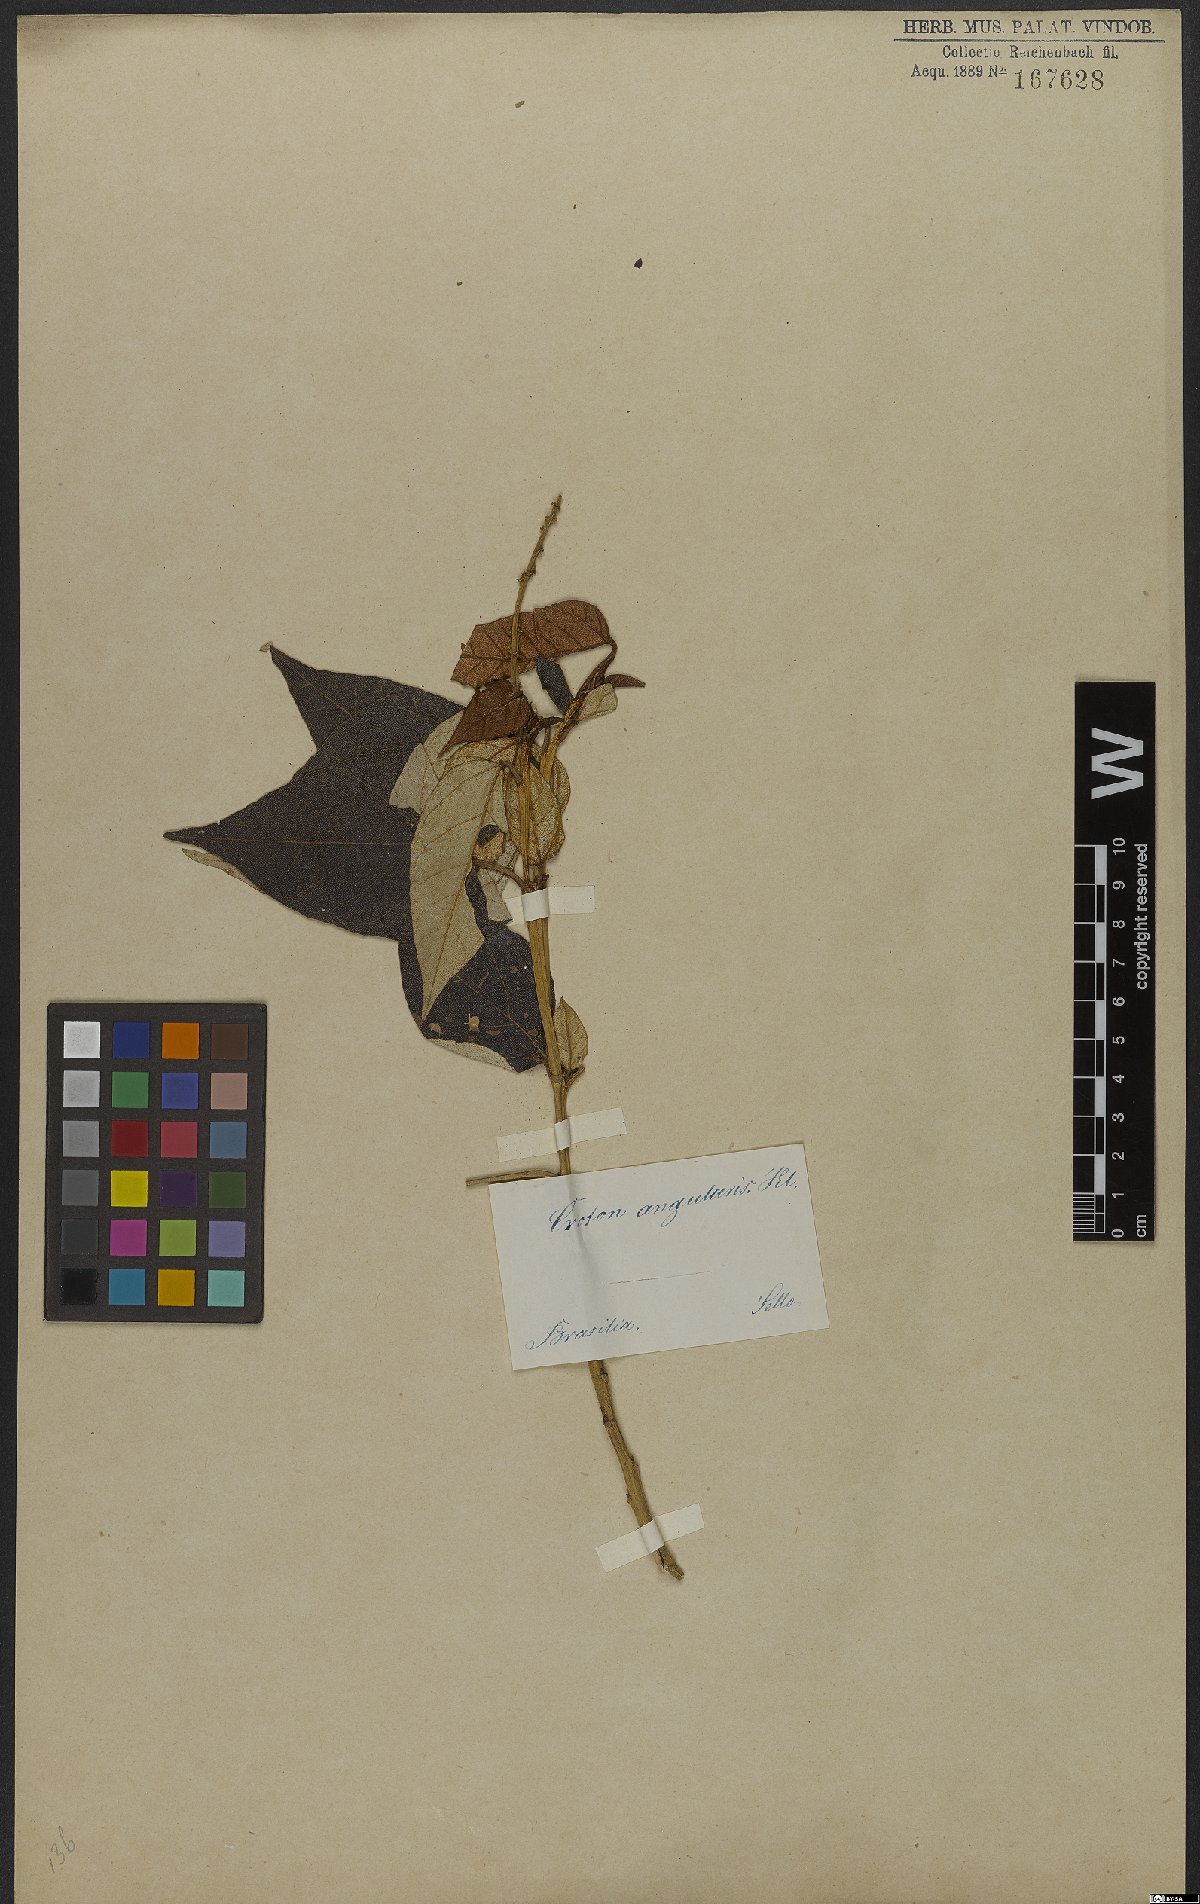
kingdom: Plantae
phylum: Tracheophyta
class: Magnoliopsida
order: Malpighiales
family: Euphorbiaceae
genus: Croton
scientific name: Croton salutaris
